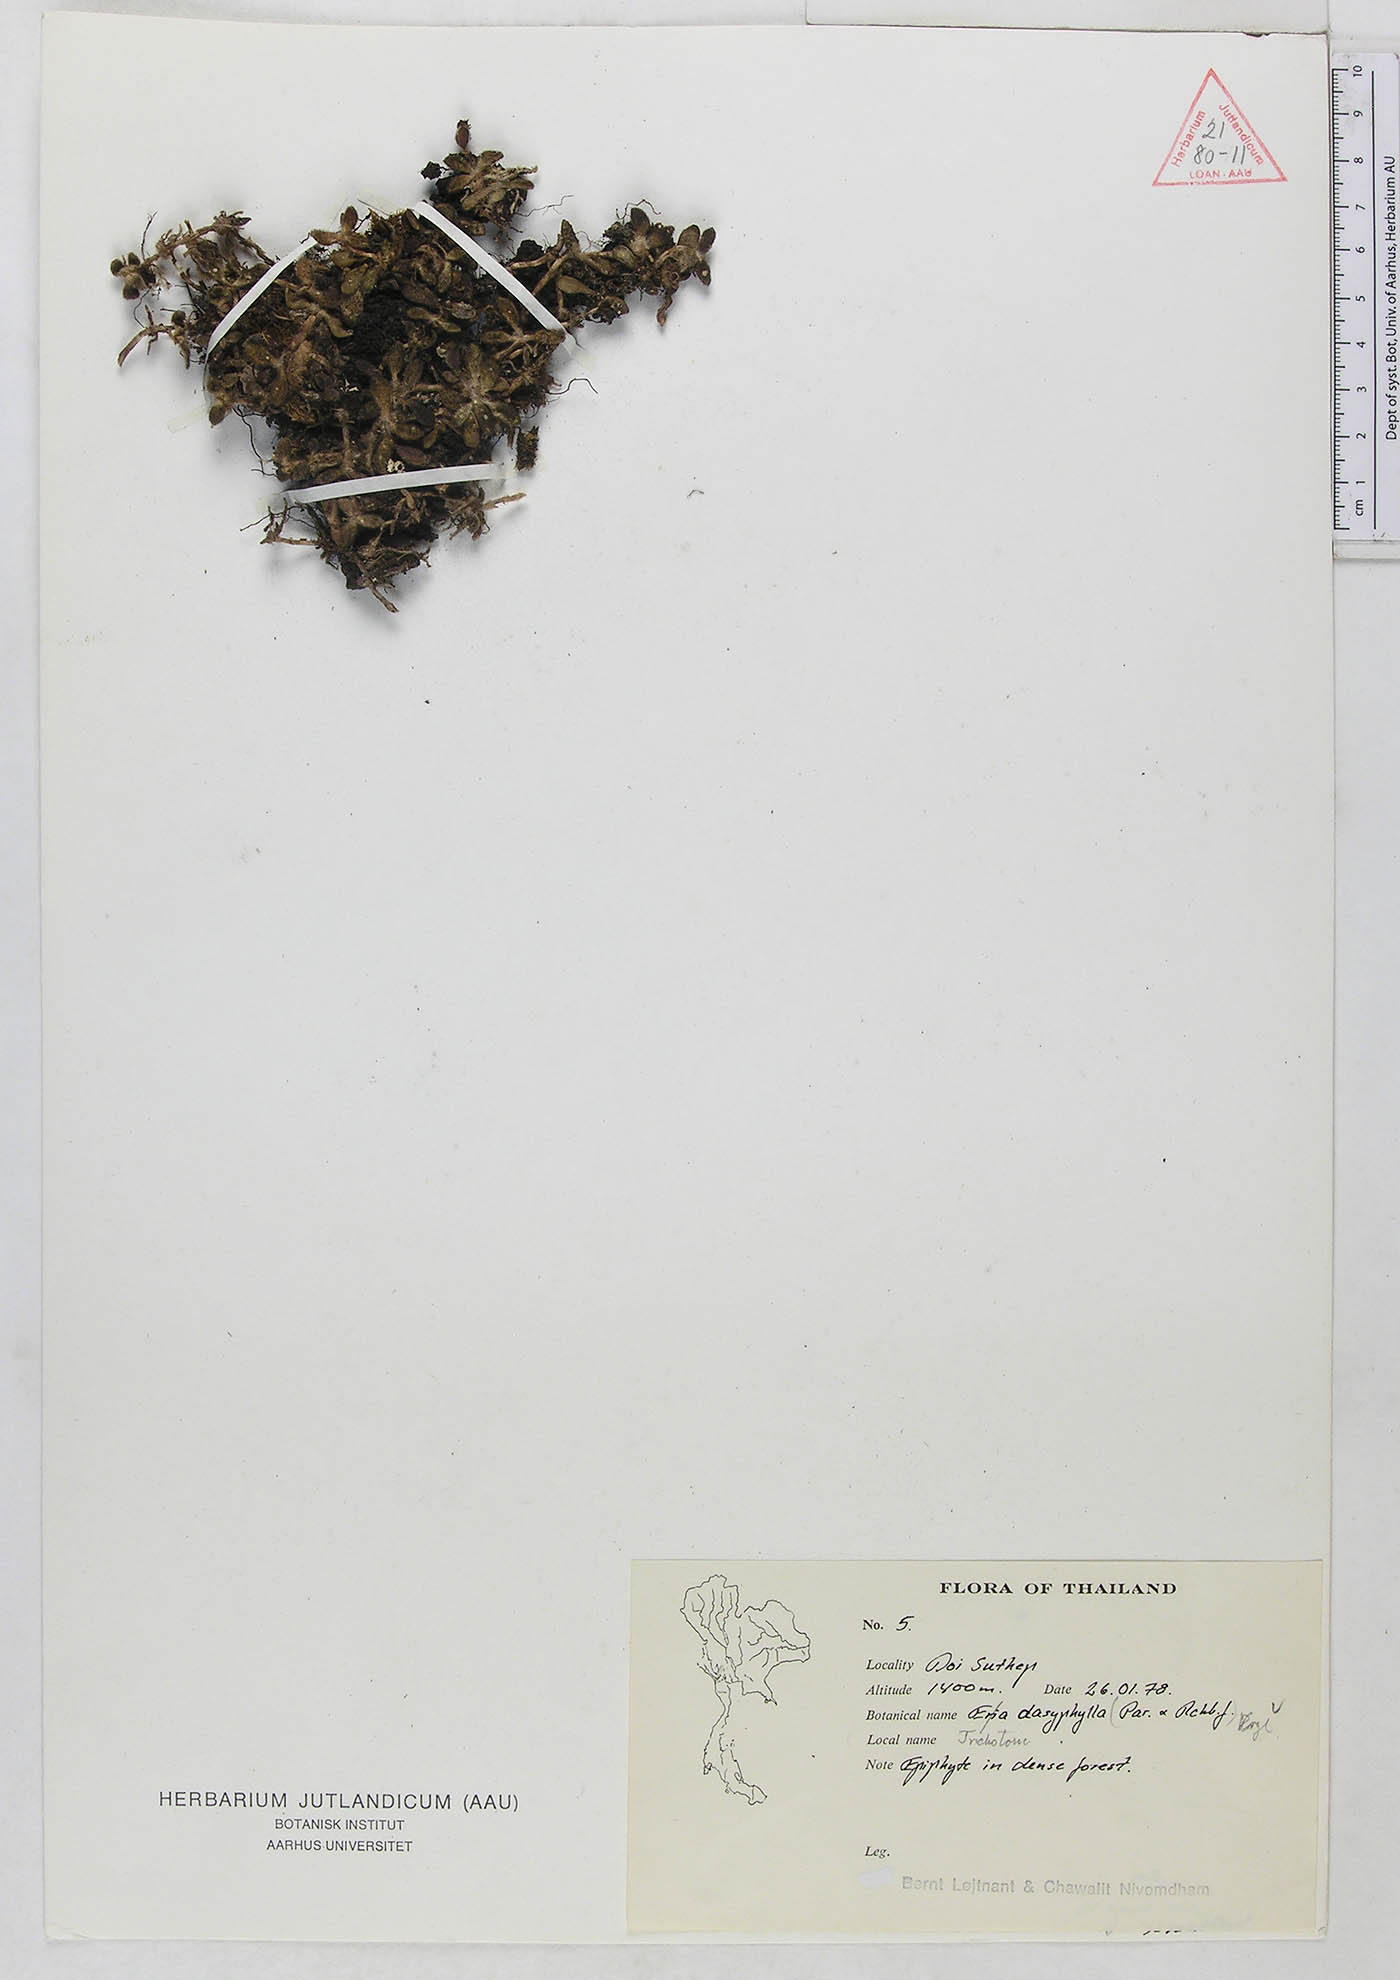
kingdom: Plantae
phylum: Tracheophyta
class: Liliopsida
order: Asparagales
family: Orchidaceae
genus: Trichotosia
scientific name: Trichotosia dasyphylla
